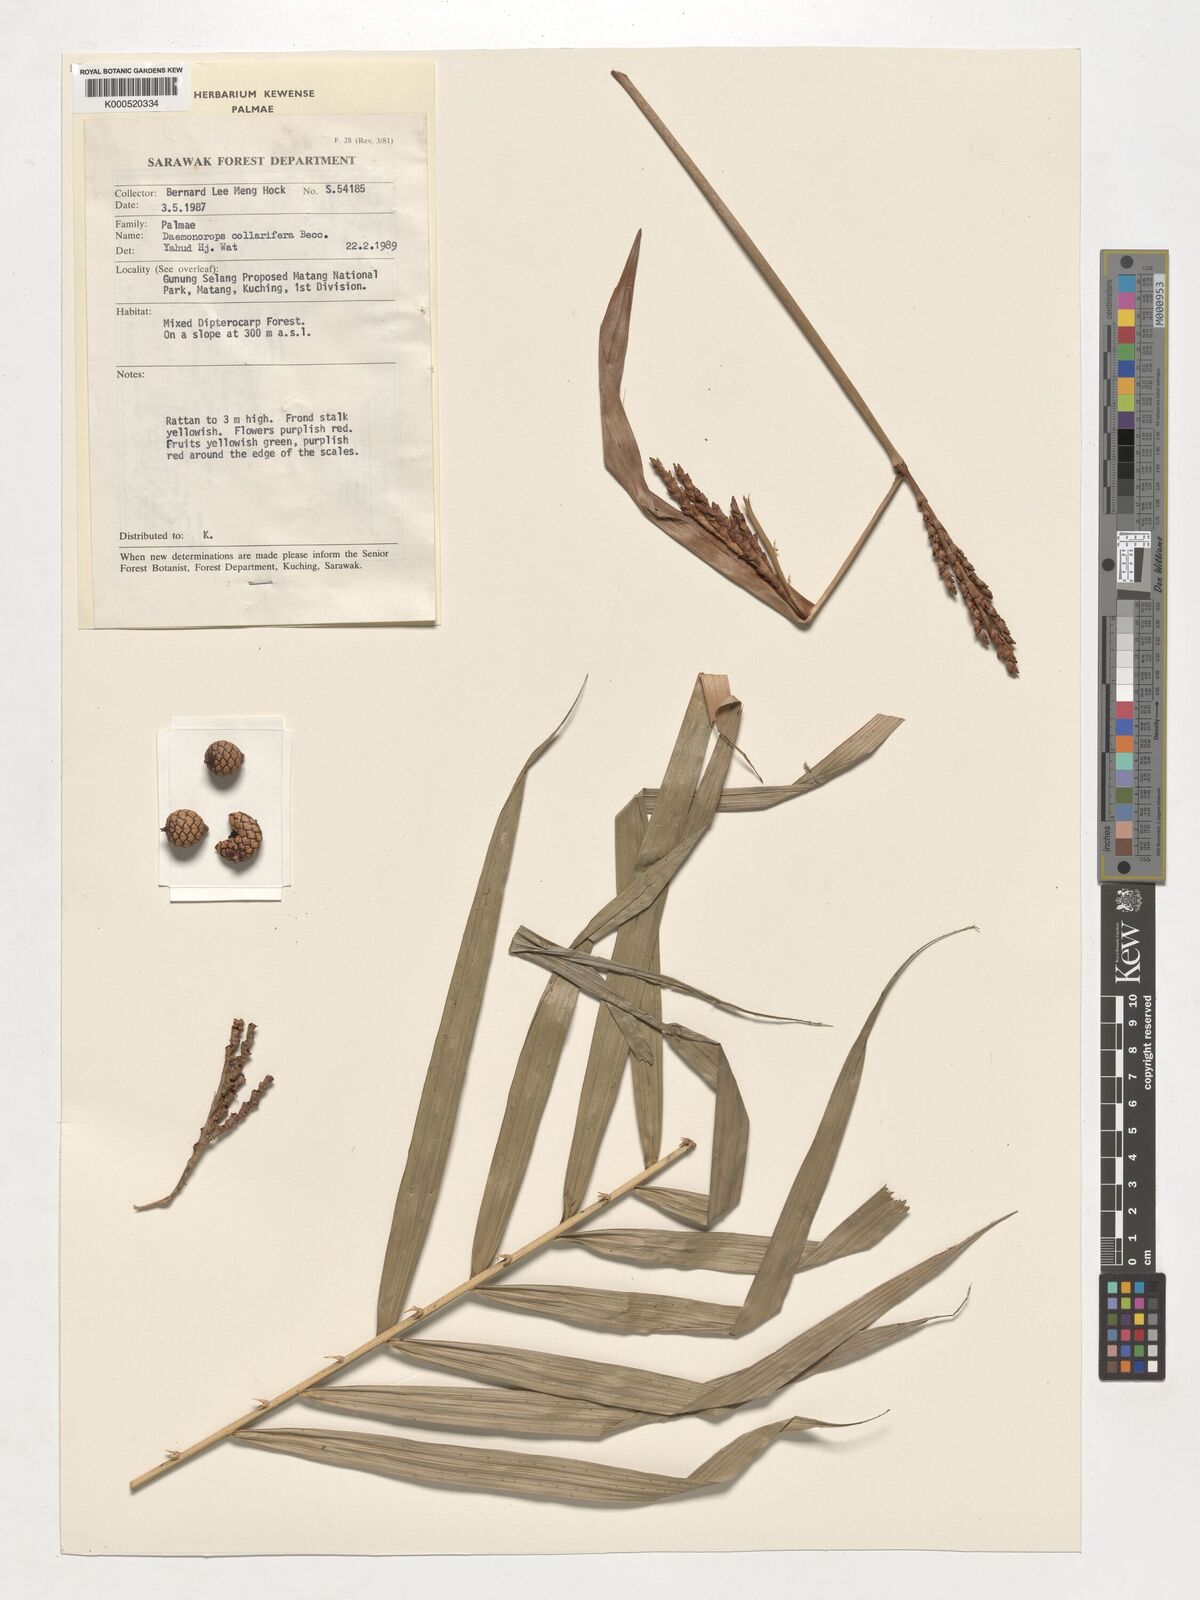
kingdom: Plantae
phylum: Tracheophyta
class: Liliopsida
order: Arecales
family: Arecaceae
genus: Calamus
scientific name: Calamus geniculatus
